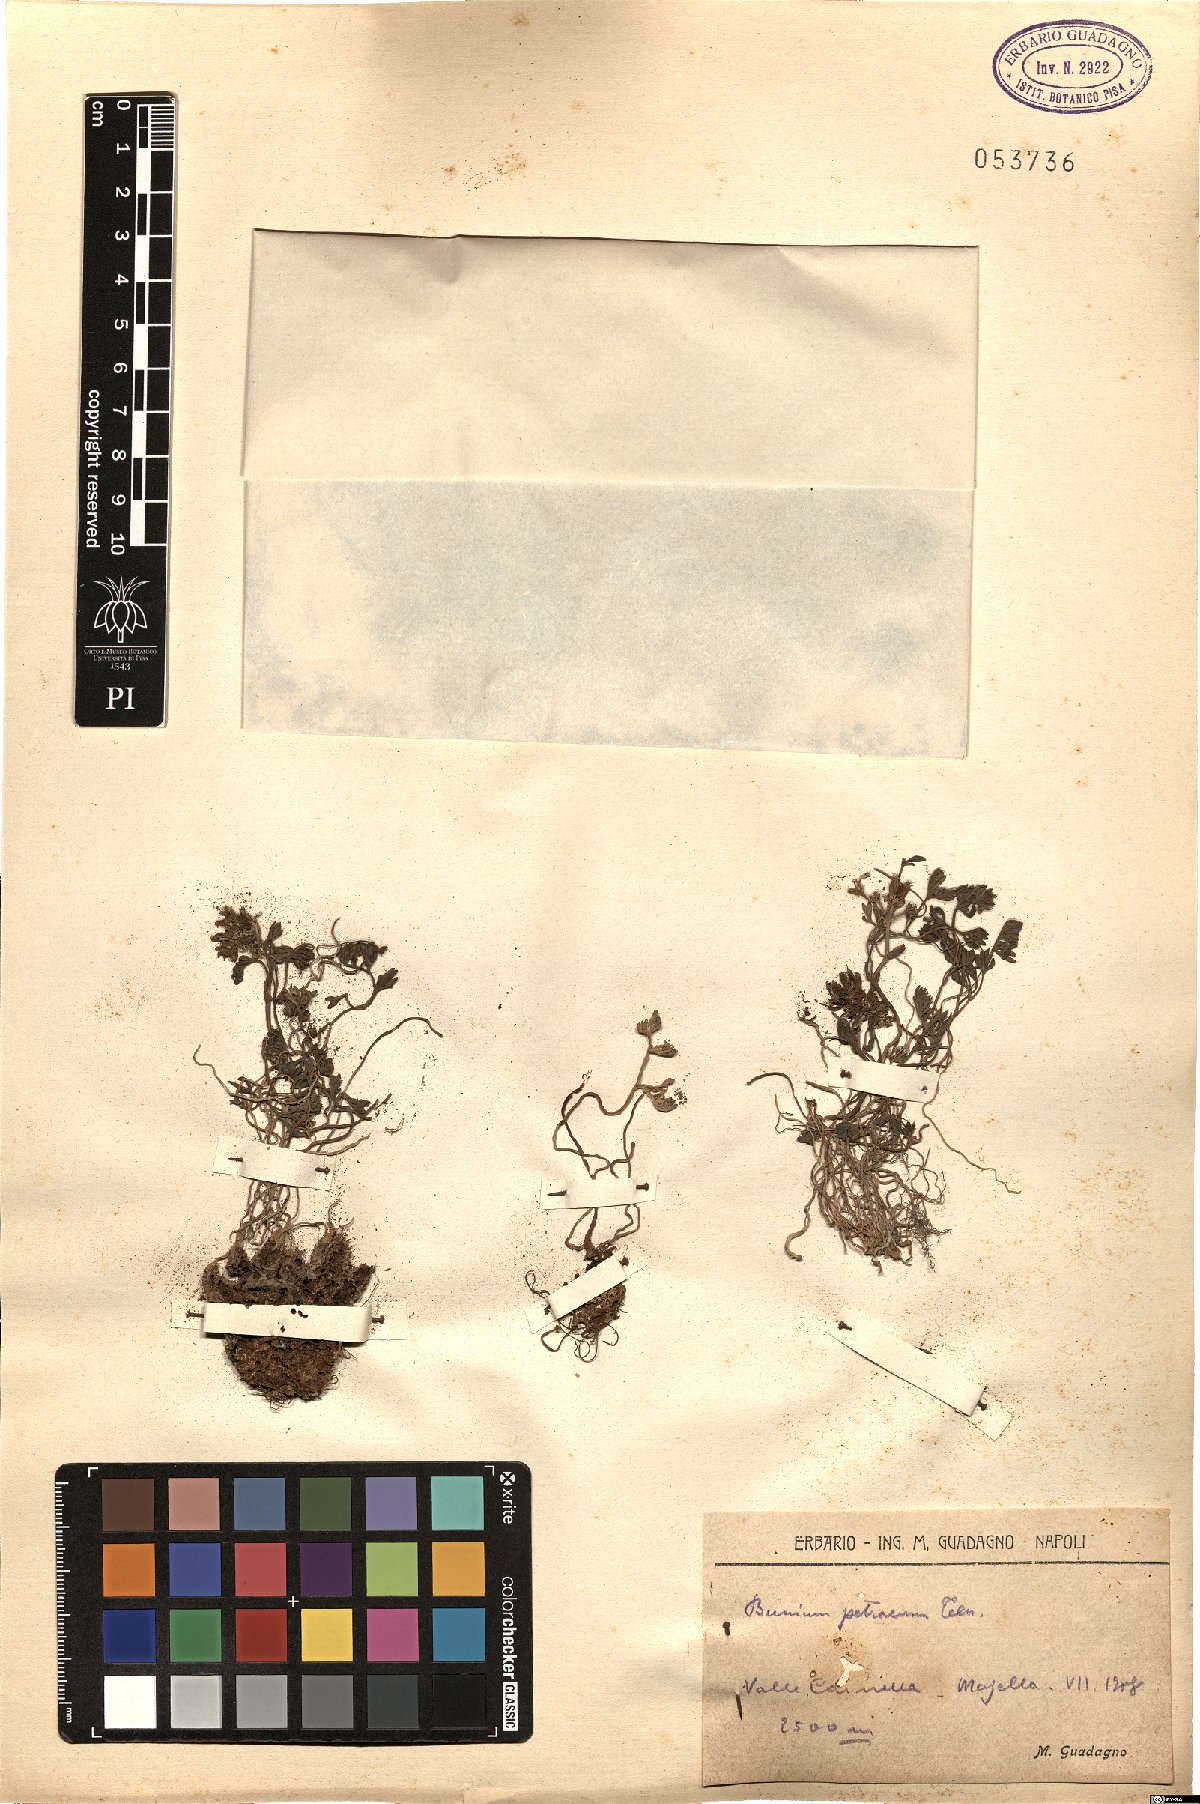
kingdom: Plantae
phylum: Tracheophyta
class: Magnoliopsida
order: Apiales
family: Apiaceae
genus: Bunium
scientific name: Bunium alpinum
